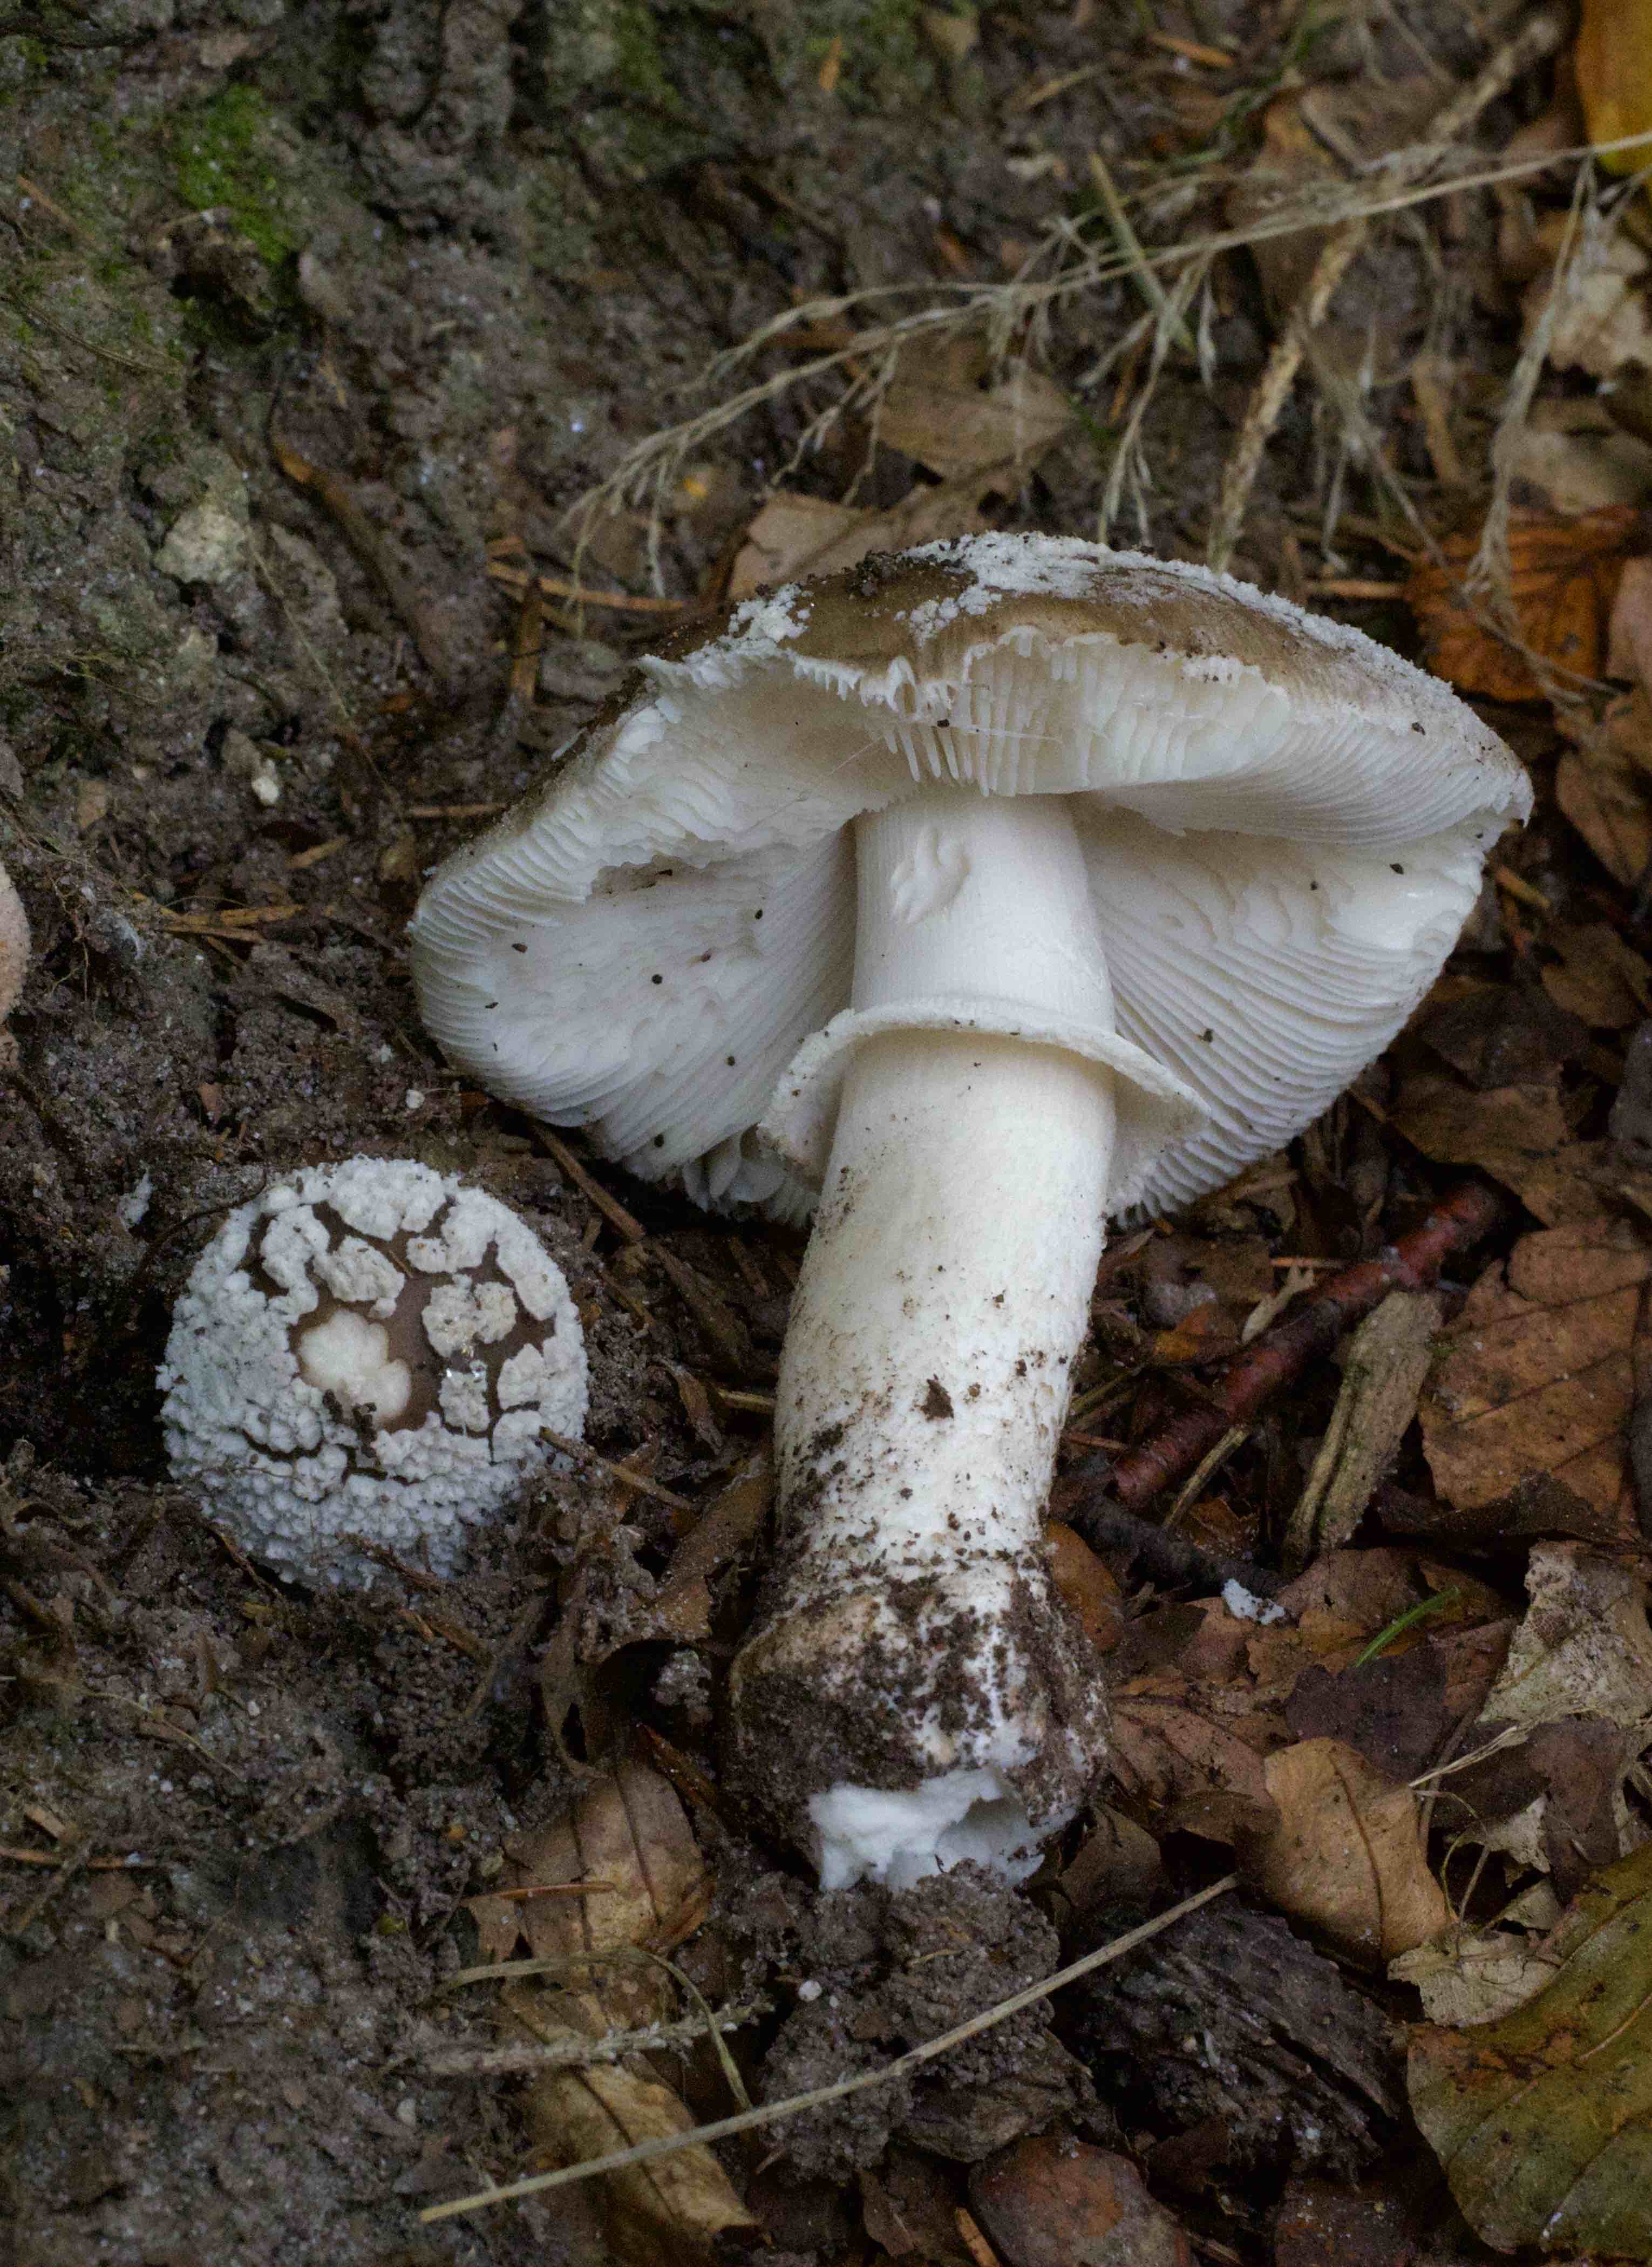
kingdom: Fungi
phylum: Basidiomycota
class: Agaricomycetes
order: Agaricales
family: Amanitaceae
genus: Amanita
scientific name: Amanita
